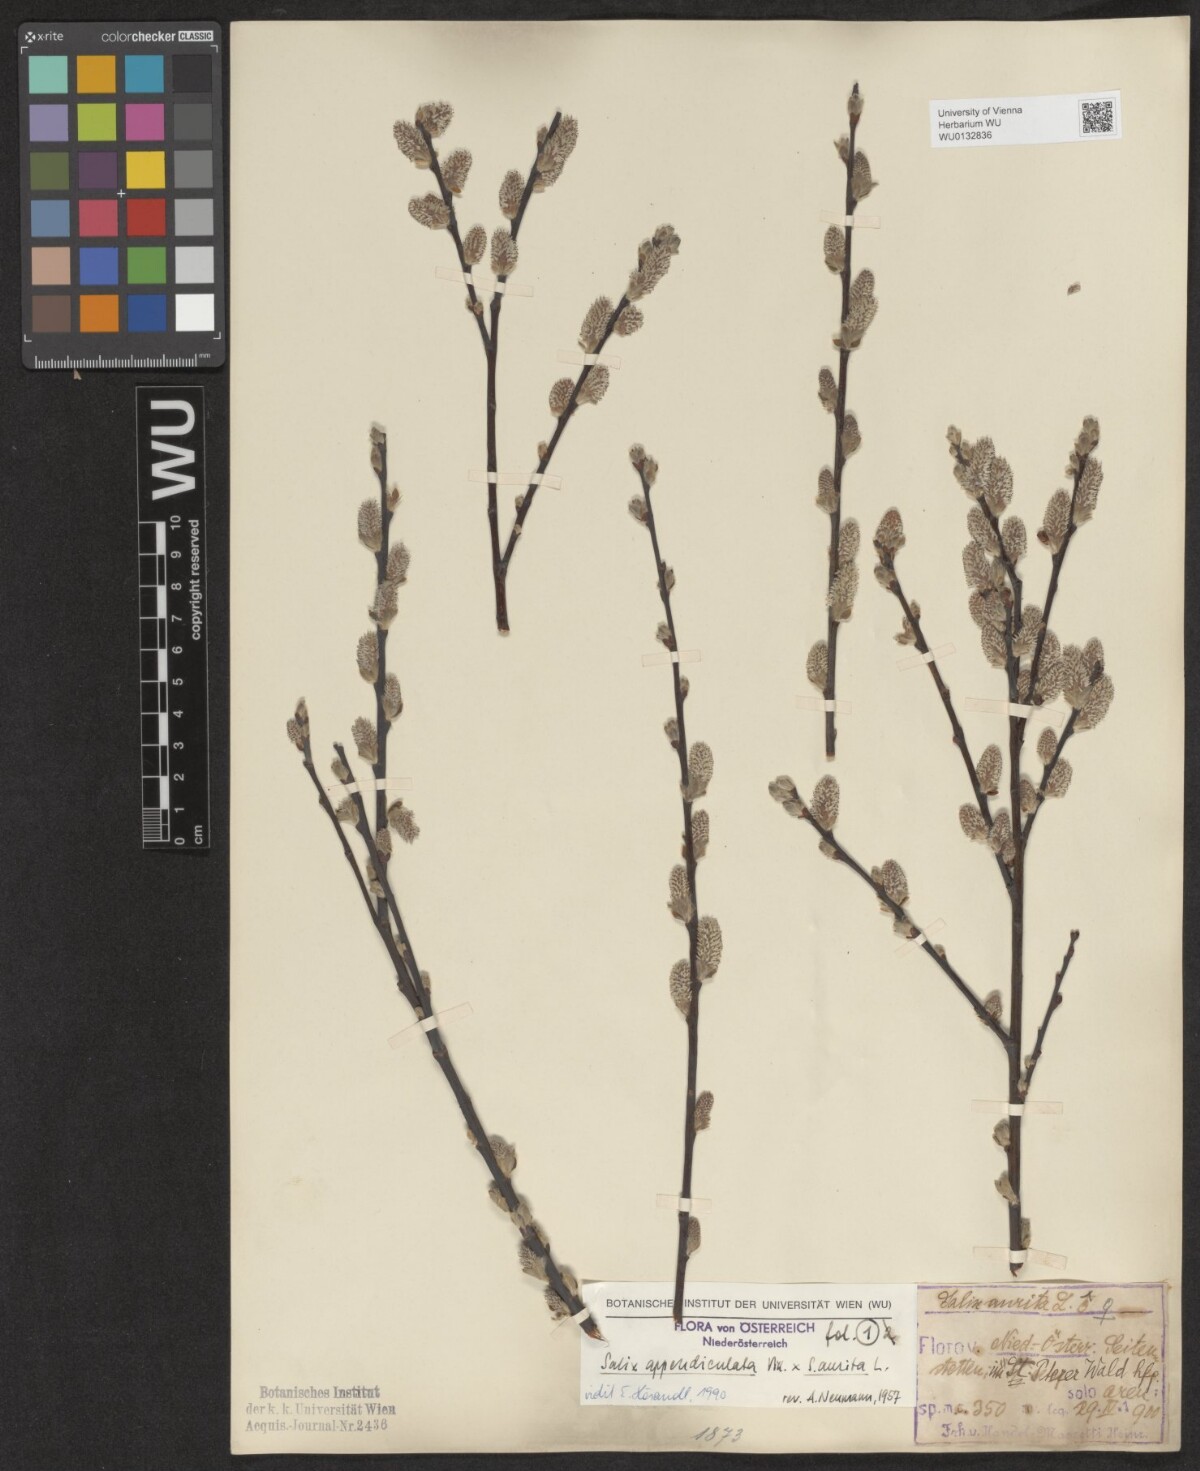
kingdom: Plantae
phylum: Tracheophyta
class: Magnoliopsida
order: Malpighiales
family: Salicaceae
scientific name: Salicaceae
